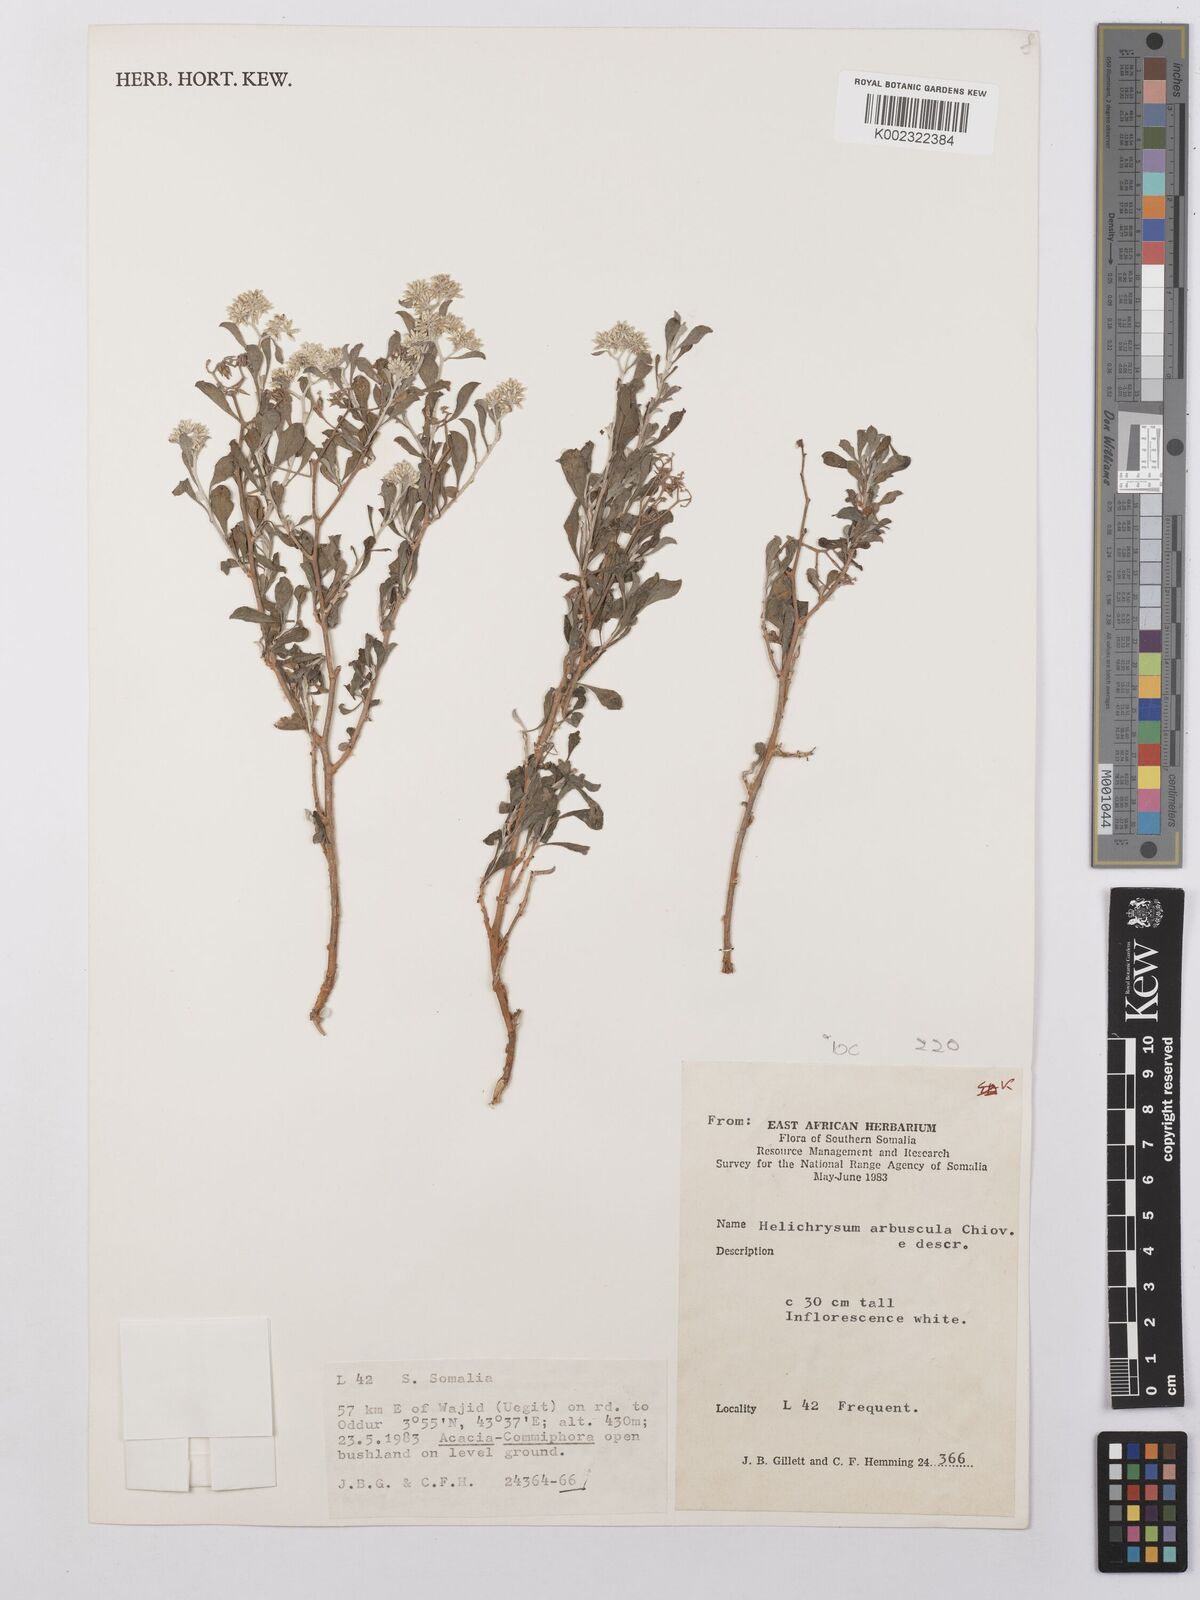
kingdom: Plantae
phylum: Tracheophyta
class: Magnoliopsida
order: Asterales
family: Asteraceae
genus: Helichrysum
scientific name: Helichrysum arbuscula
